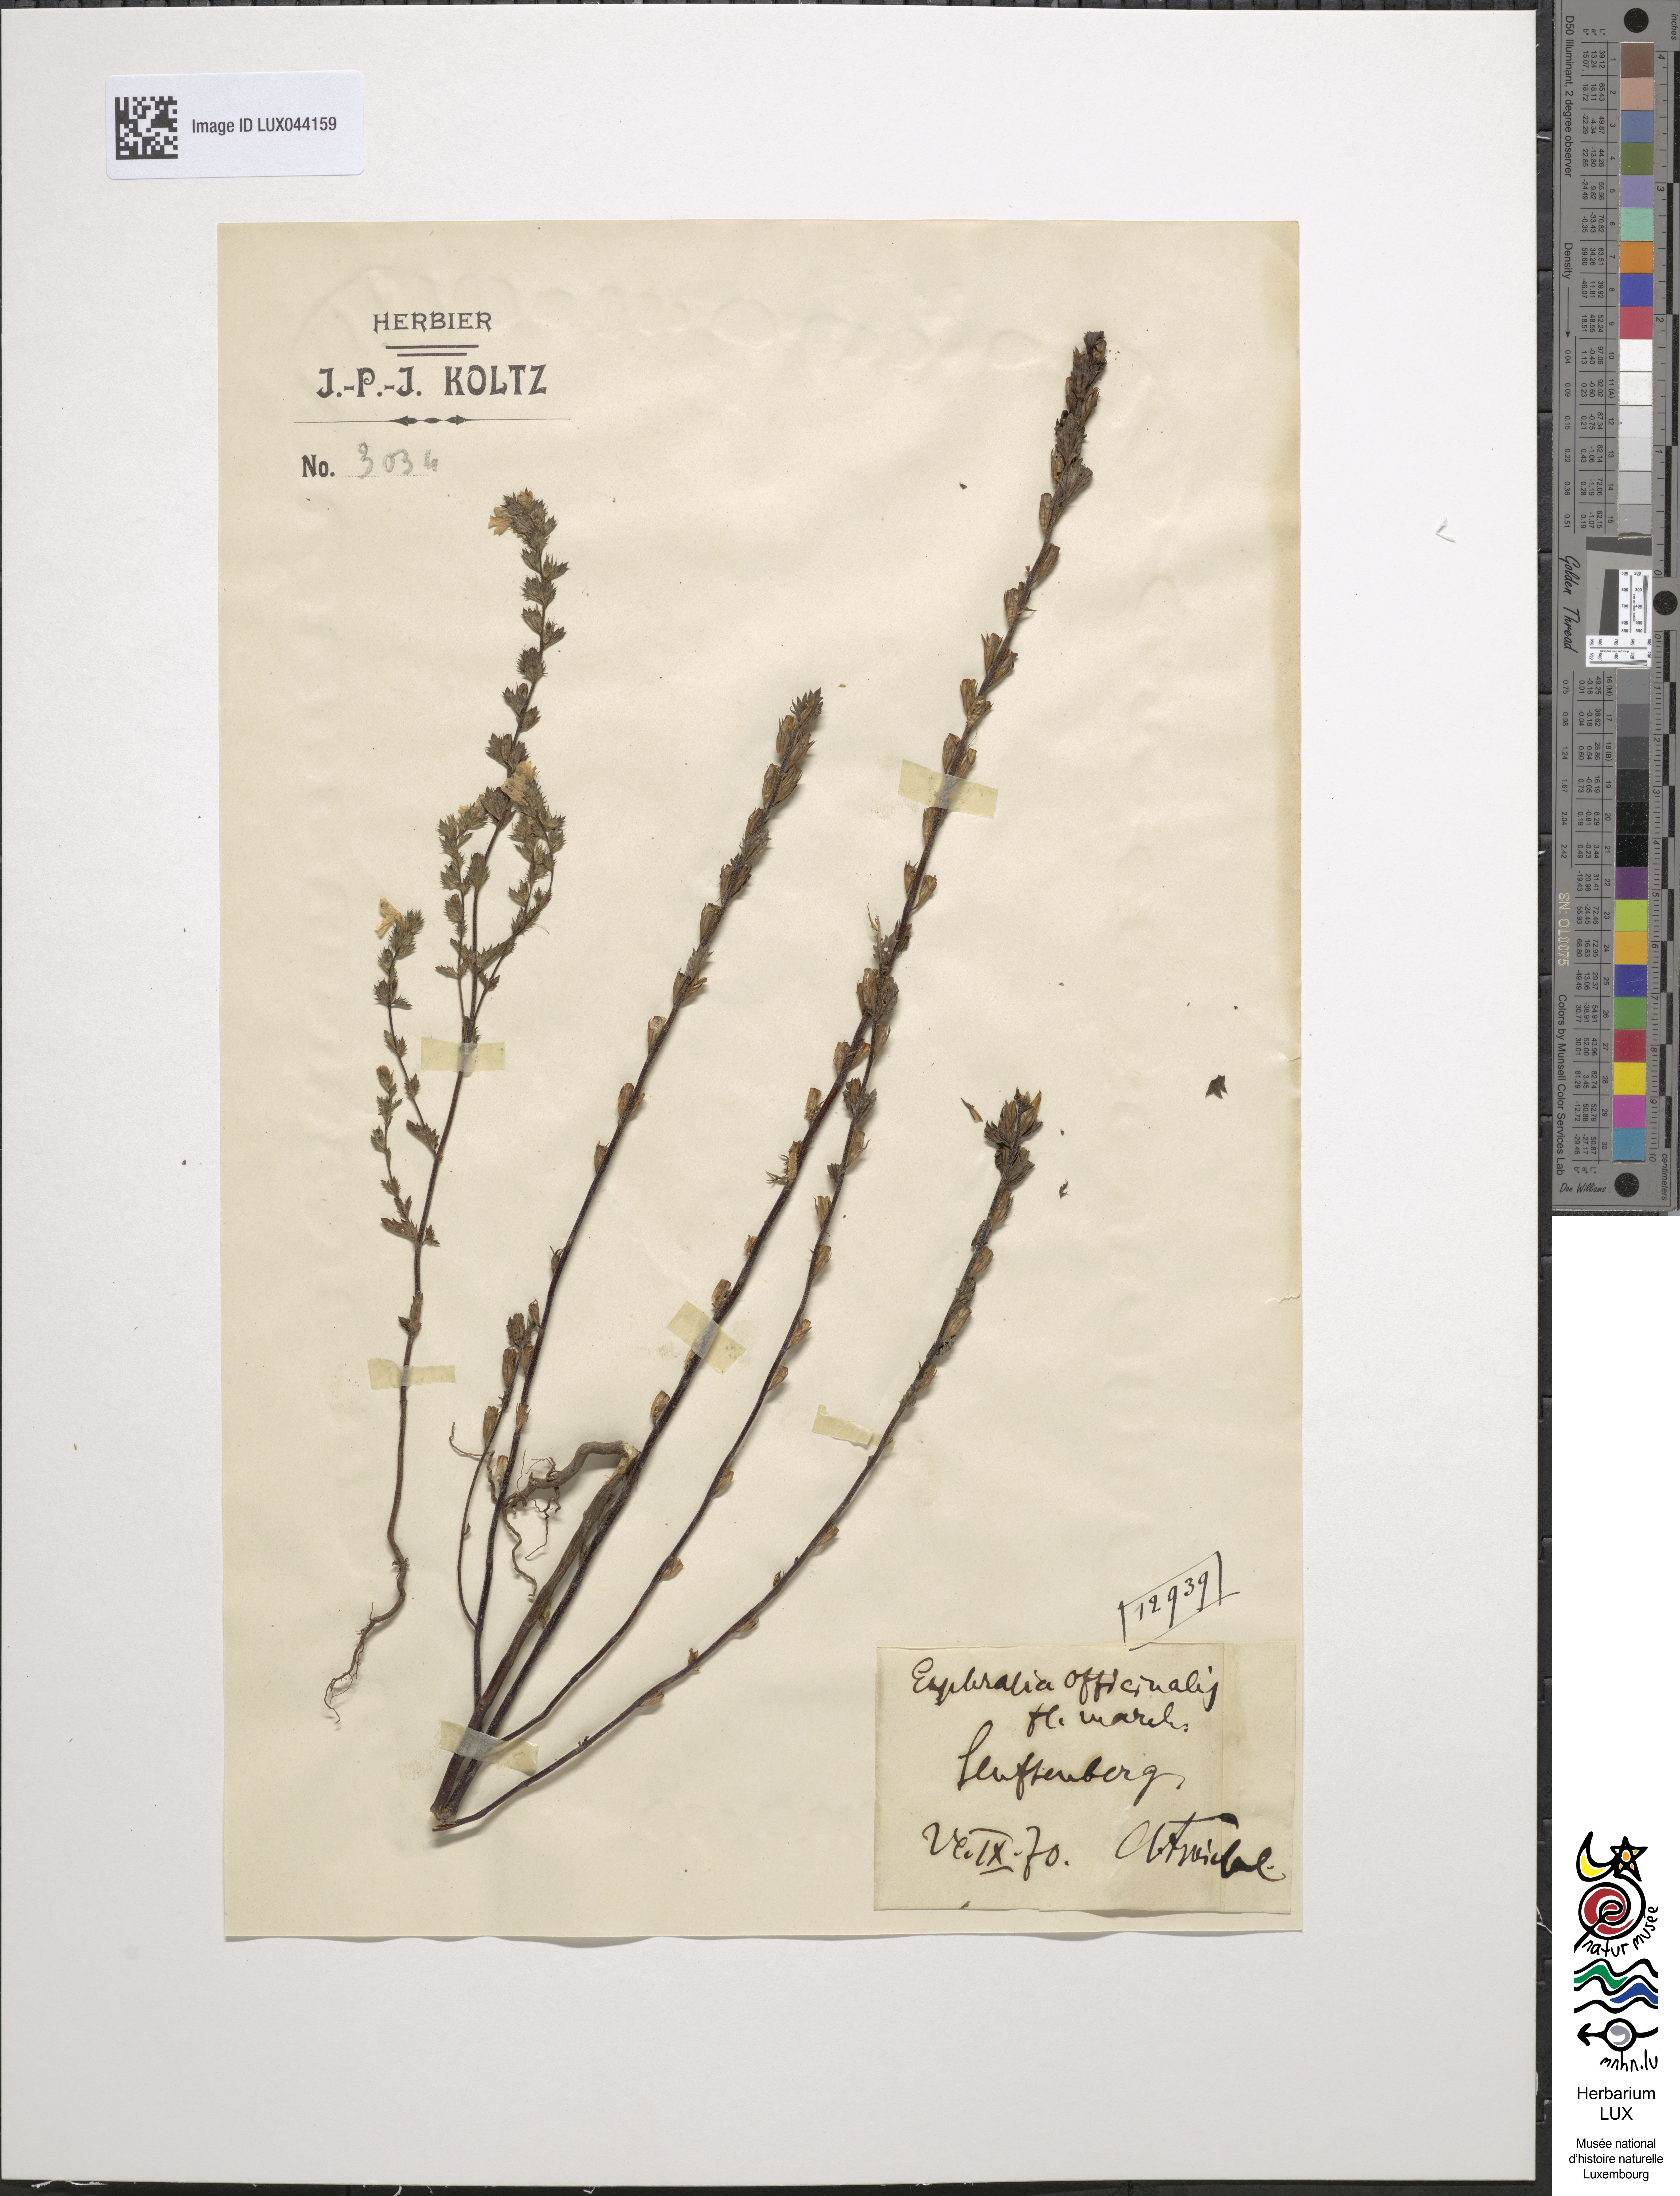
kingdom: Plantae
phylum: Tracheophyta
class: Magnoliopsida
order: Lamiales
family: Orobanchaceae
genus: Euphrasia
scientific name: Euphrasia officinalis
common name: Eyebright
